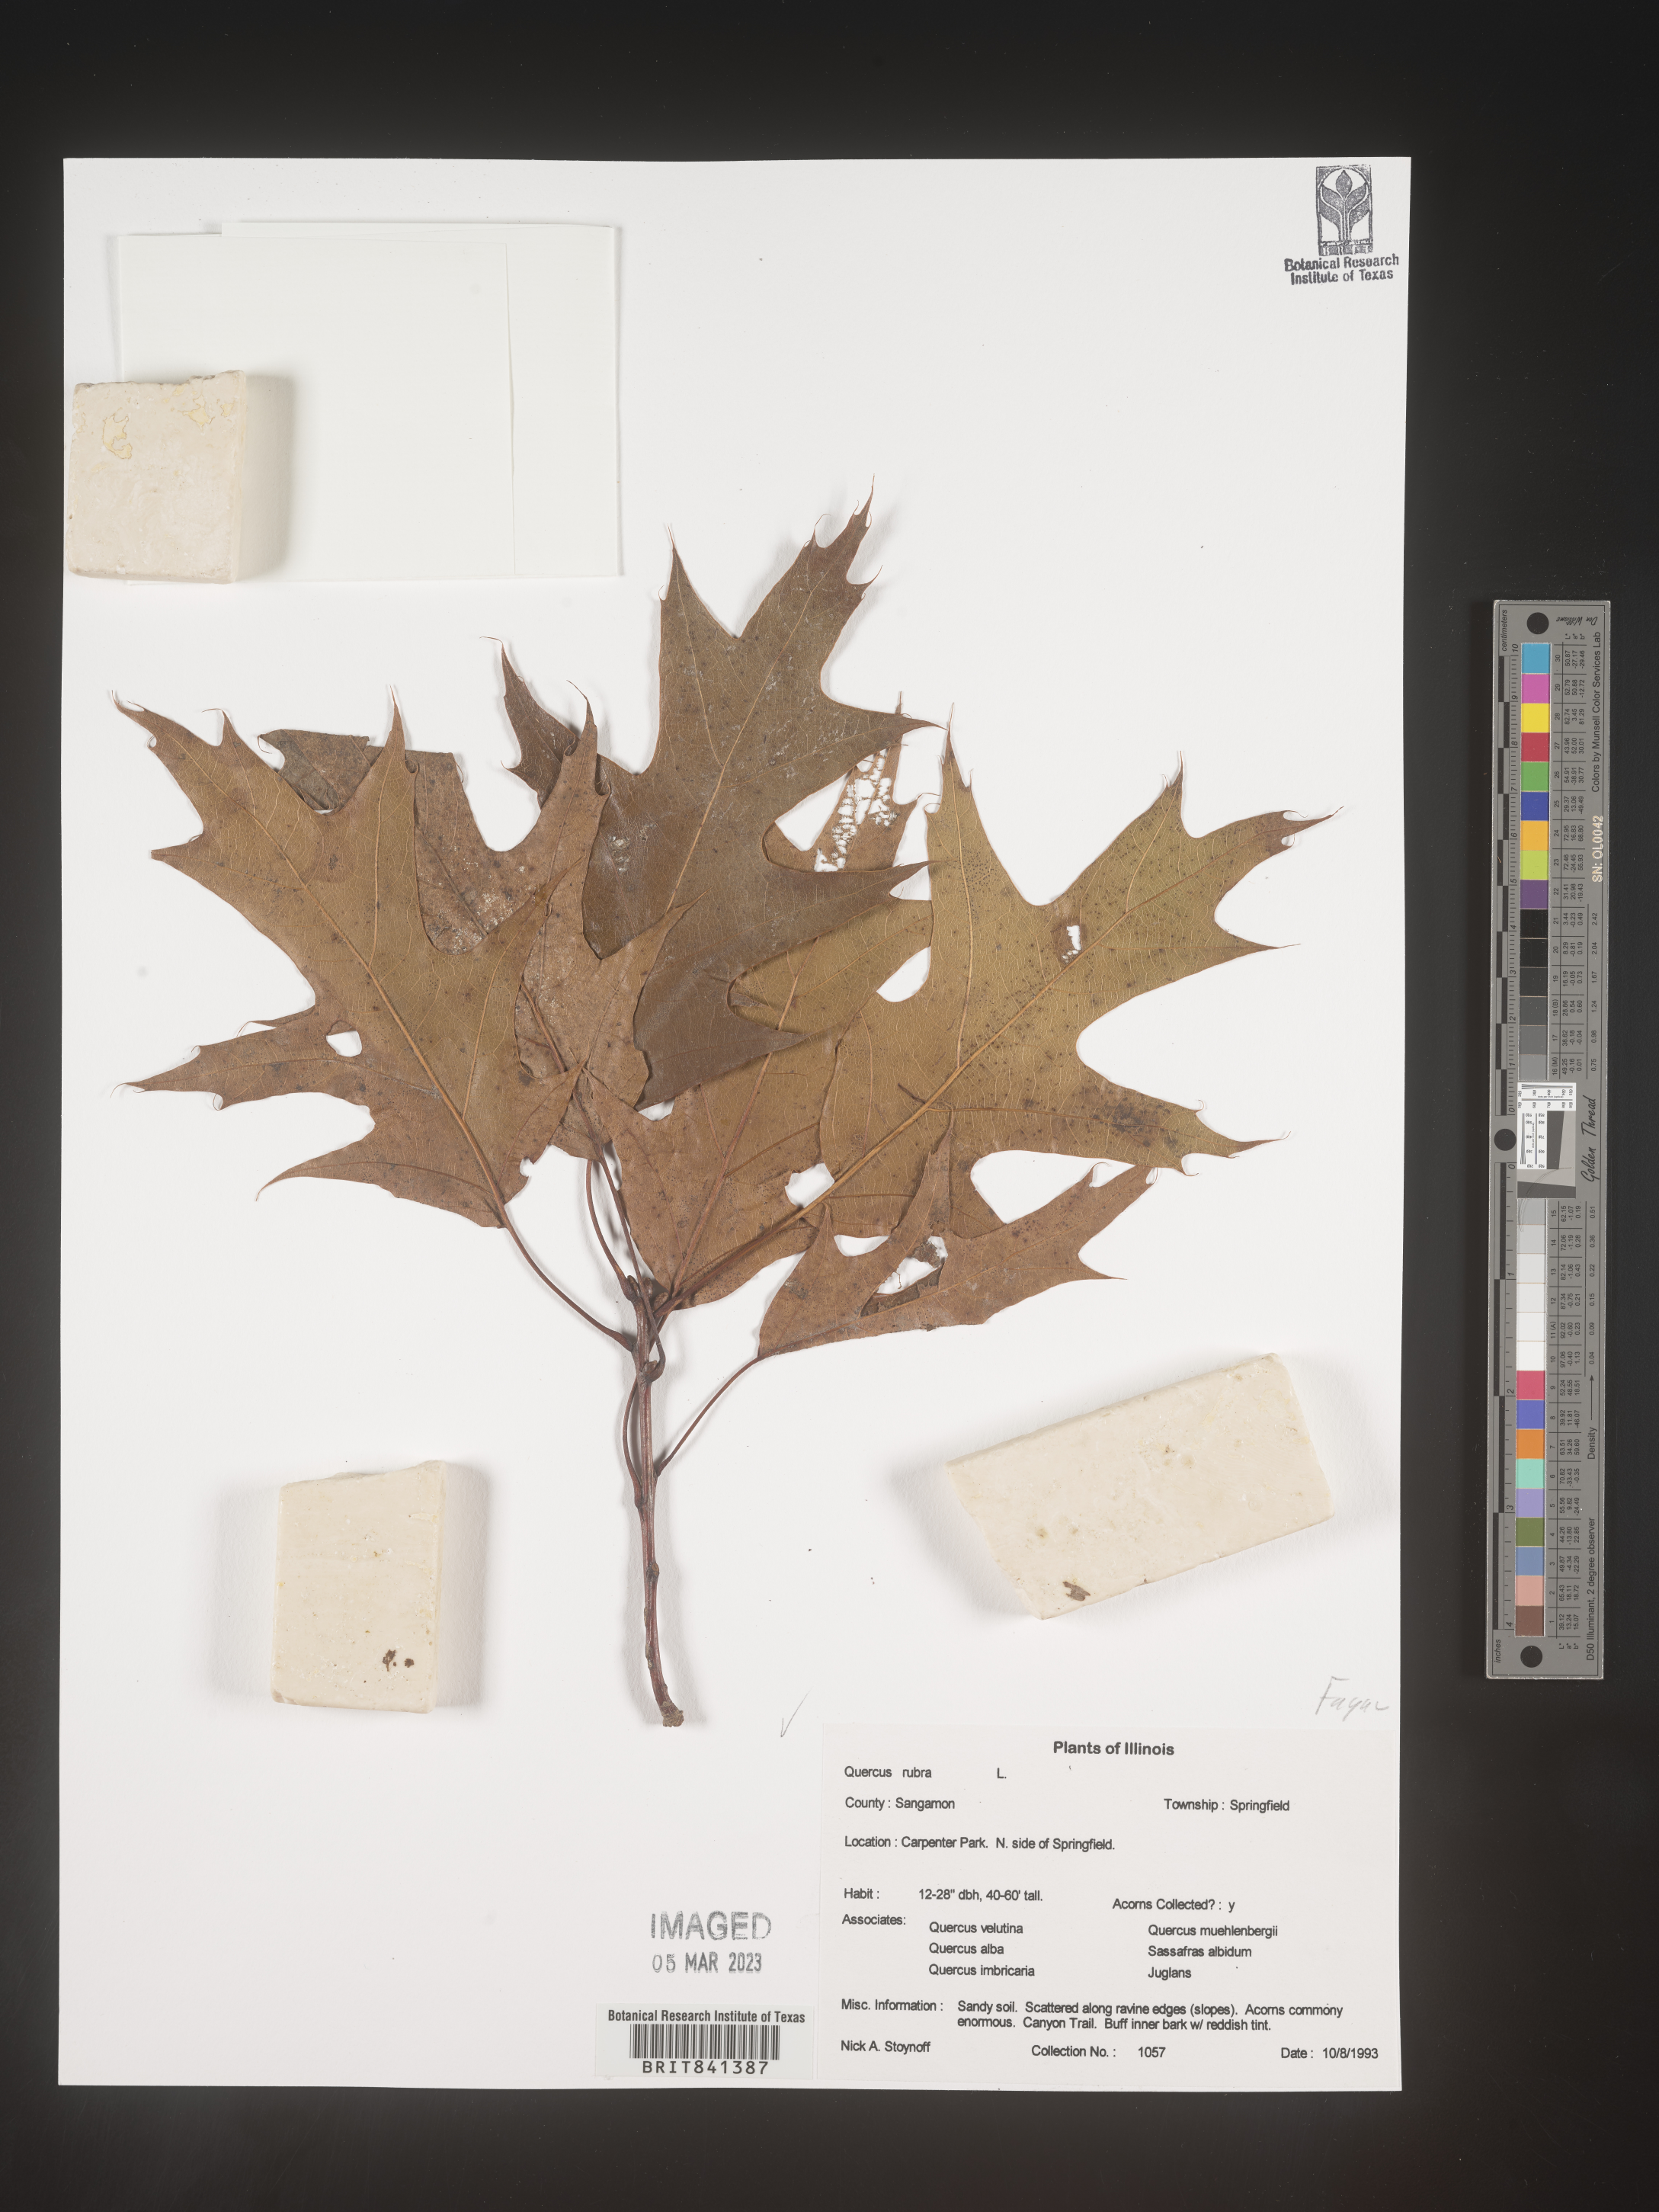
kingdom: Plantae
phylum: Tracheophyta
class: Magnoliopsida
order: Fagales
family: Fagaceae
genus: Quercus
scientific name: Quercus rubra
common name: Red oak
